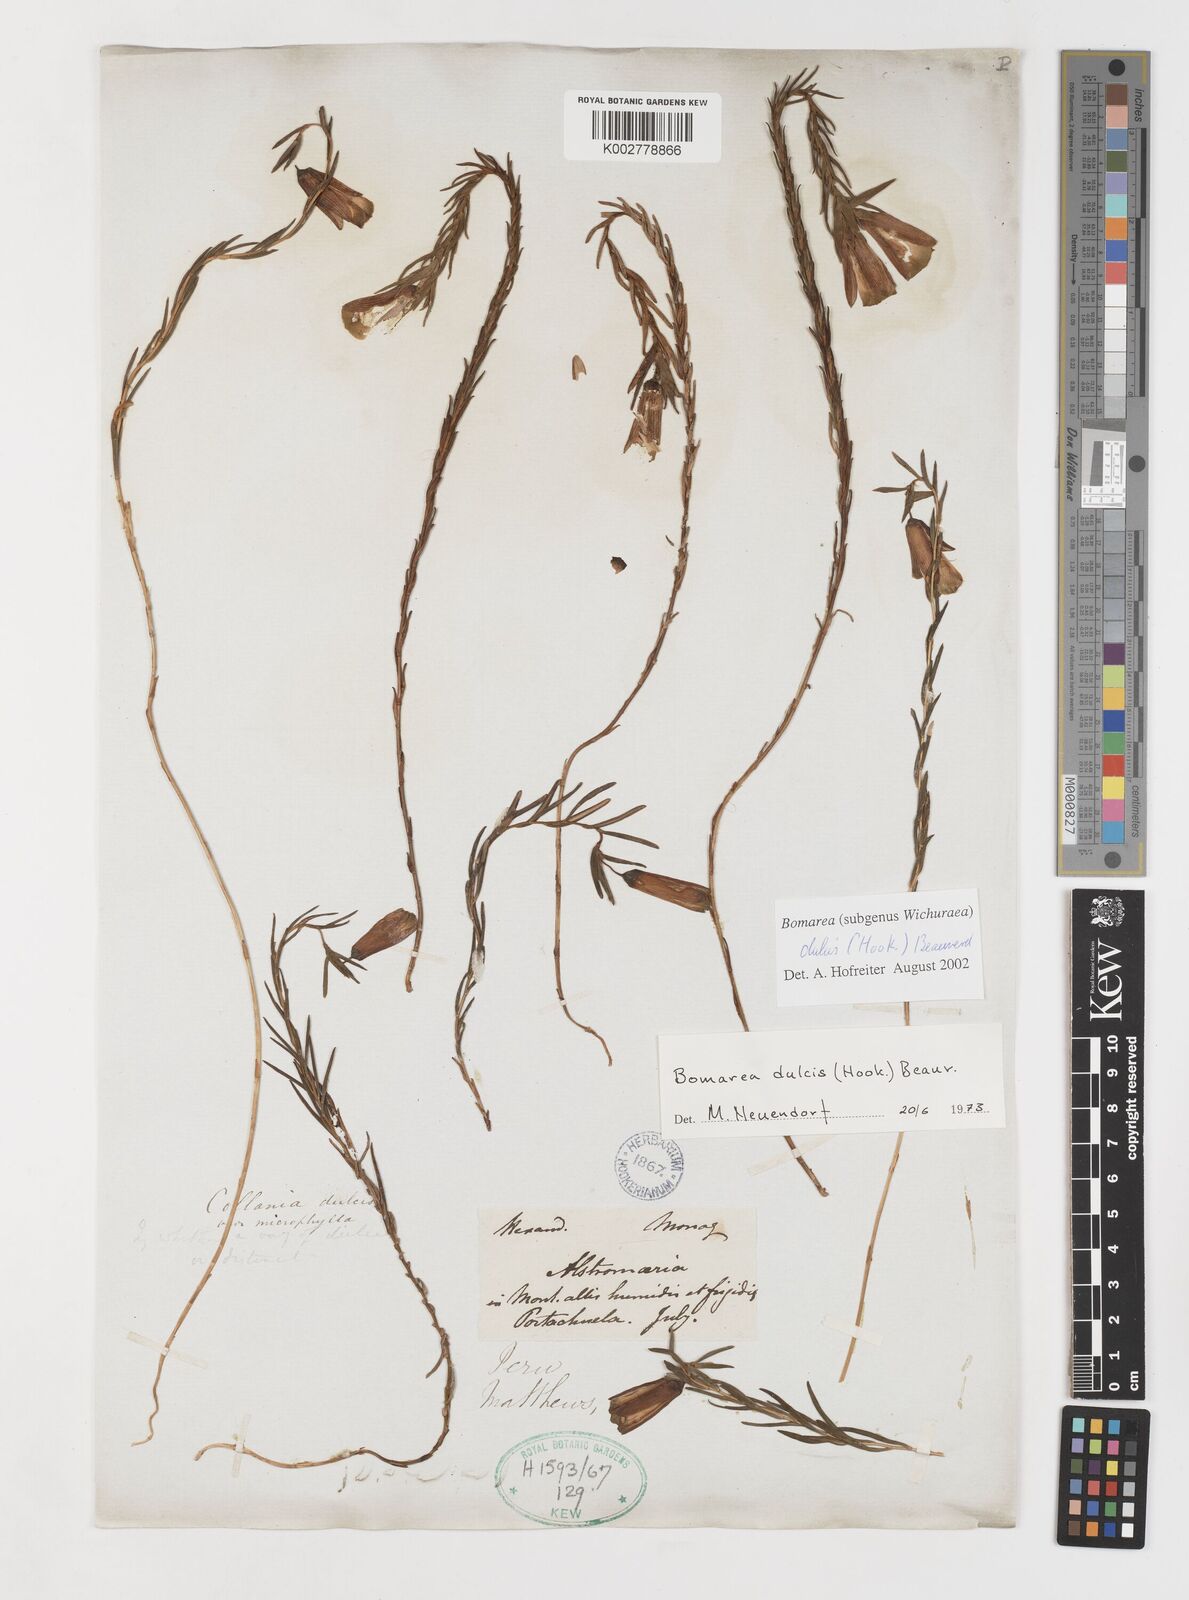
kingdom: Plantae
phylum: Tracheophyta
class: Liliopsida
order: Liliales
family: Alstroemeriaceae
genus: Bomarea
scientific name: Bomarea dulcis
